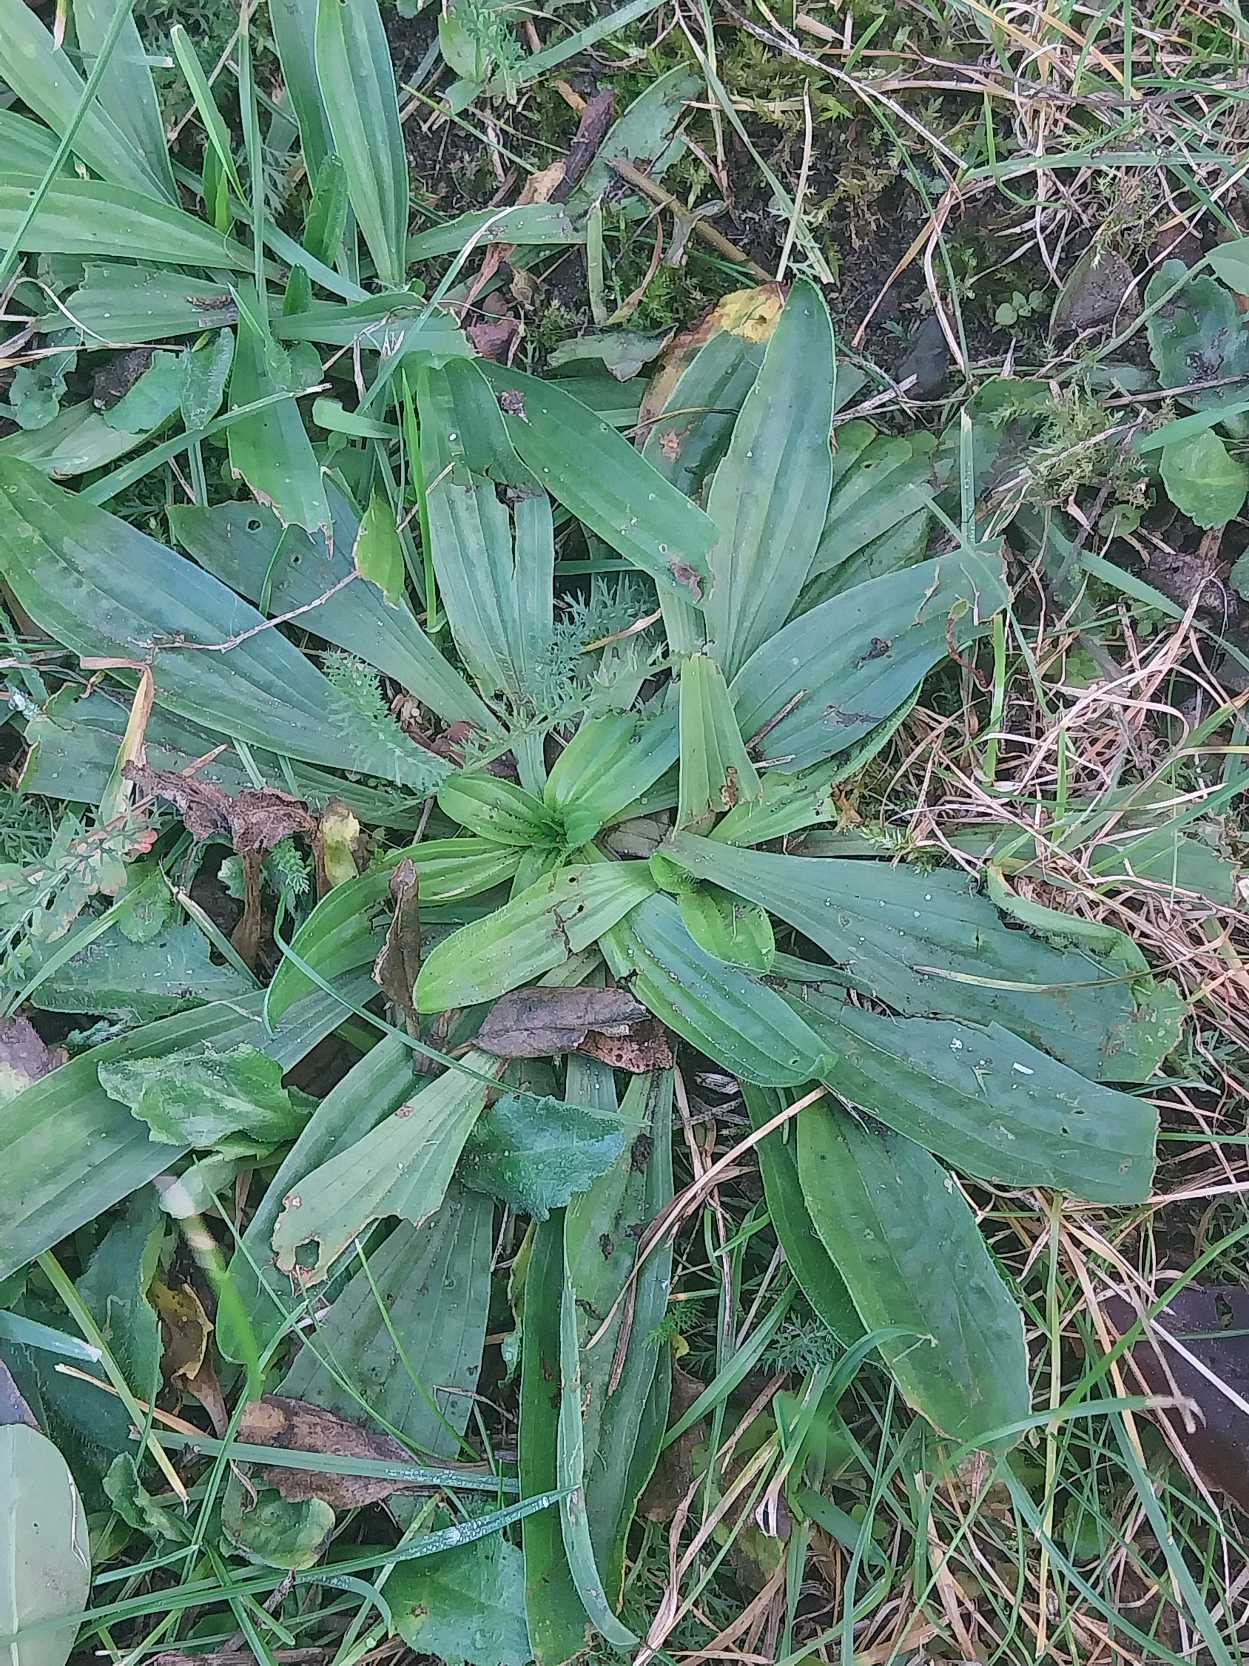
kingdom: Plantae
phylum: Tracheophyta
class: Magnoliopsida
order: Lamiales
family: Plantaginaceae
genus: Plantago
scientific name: Plantago lanceolata
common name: Lancet-vejbred
